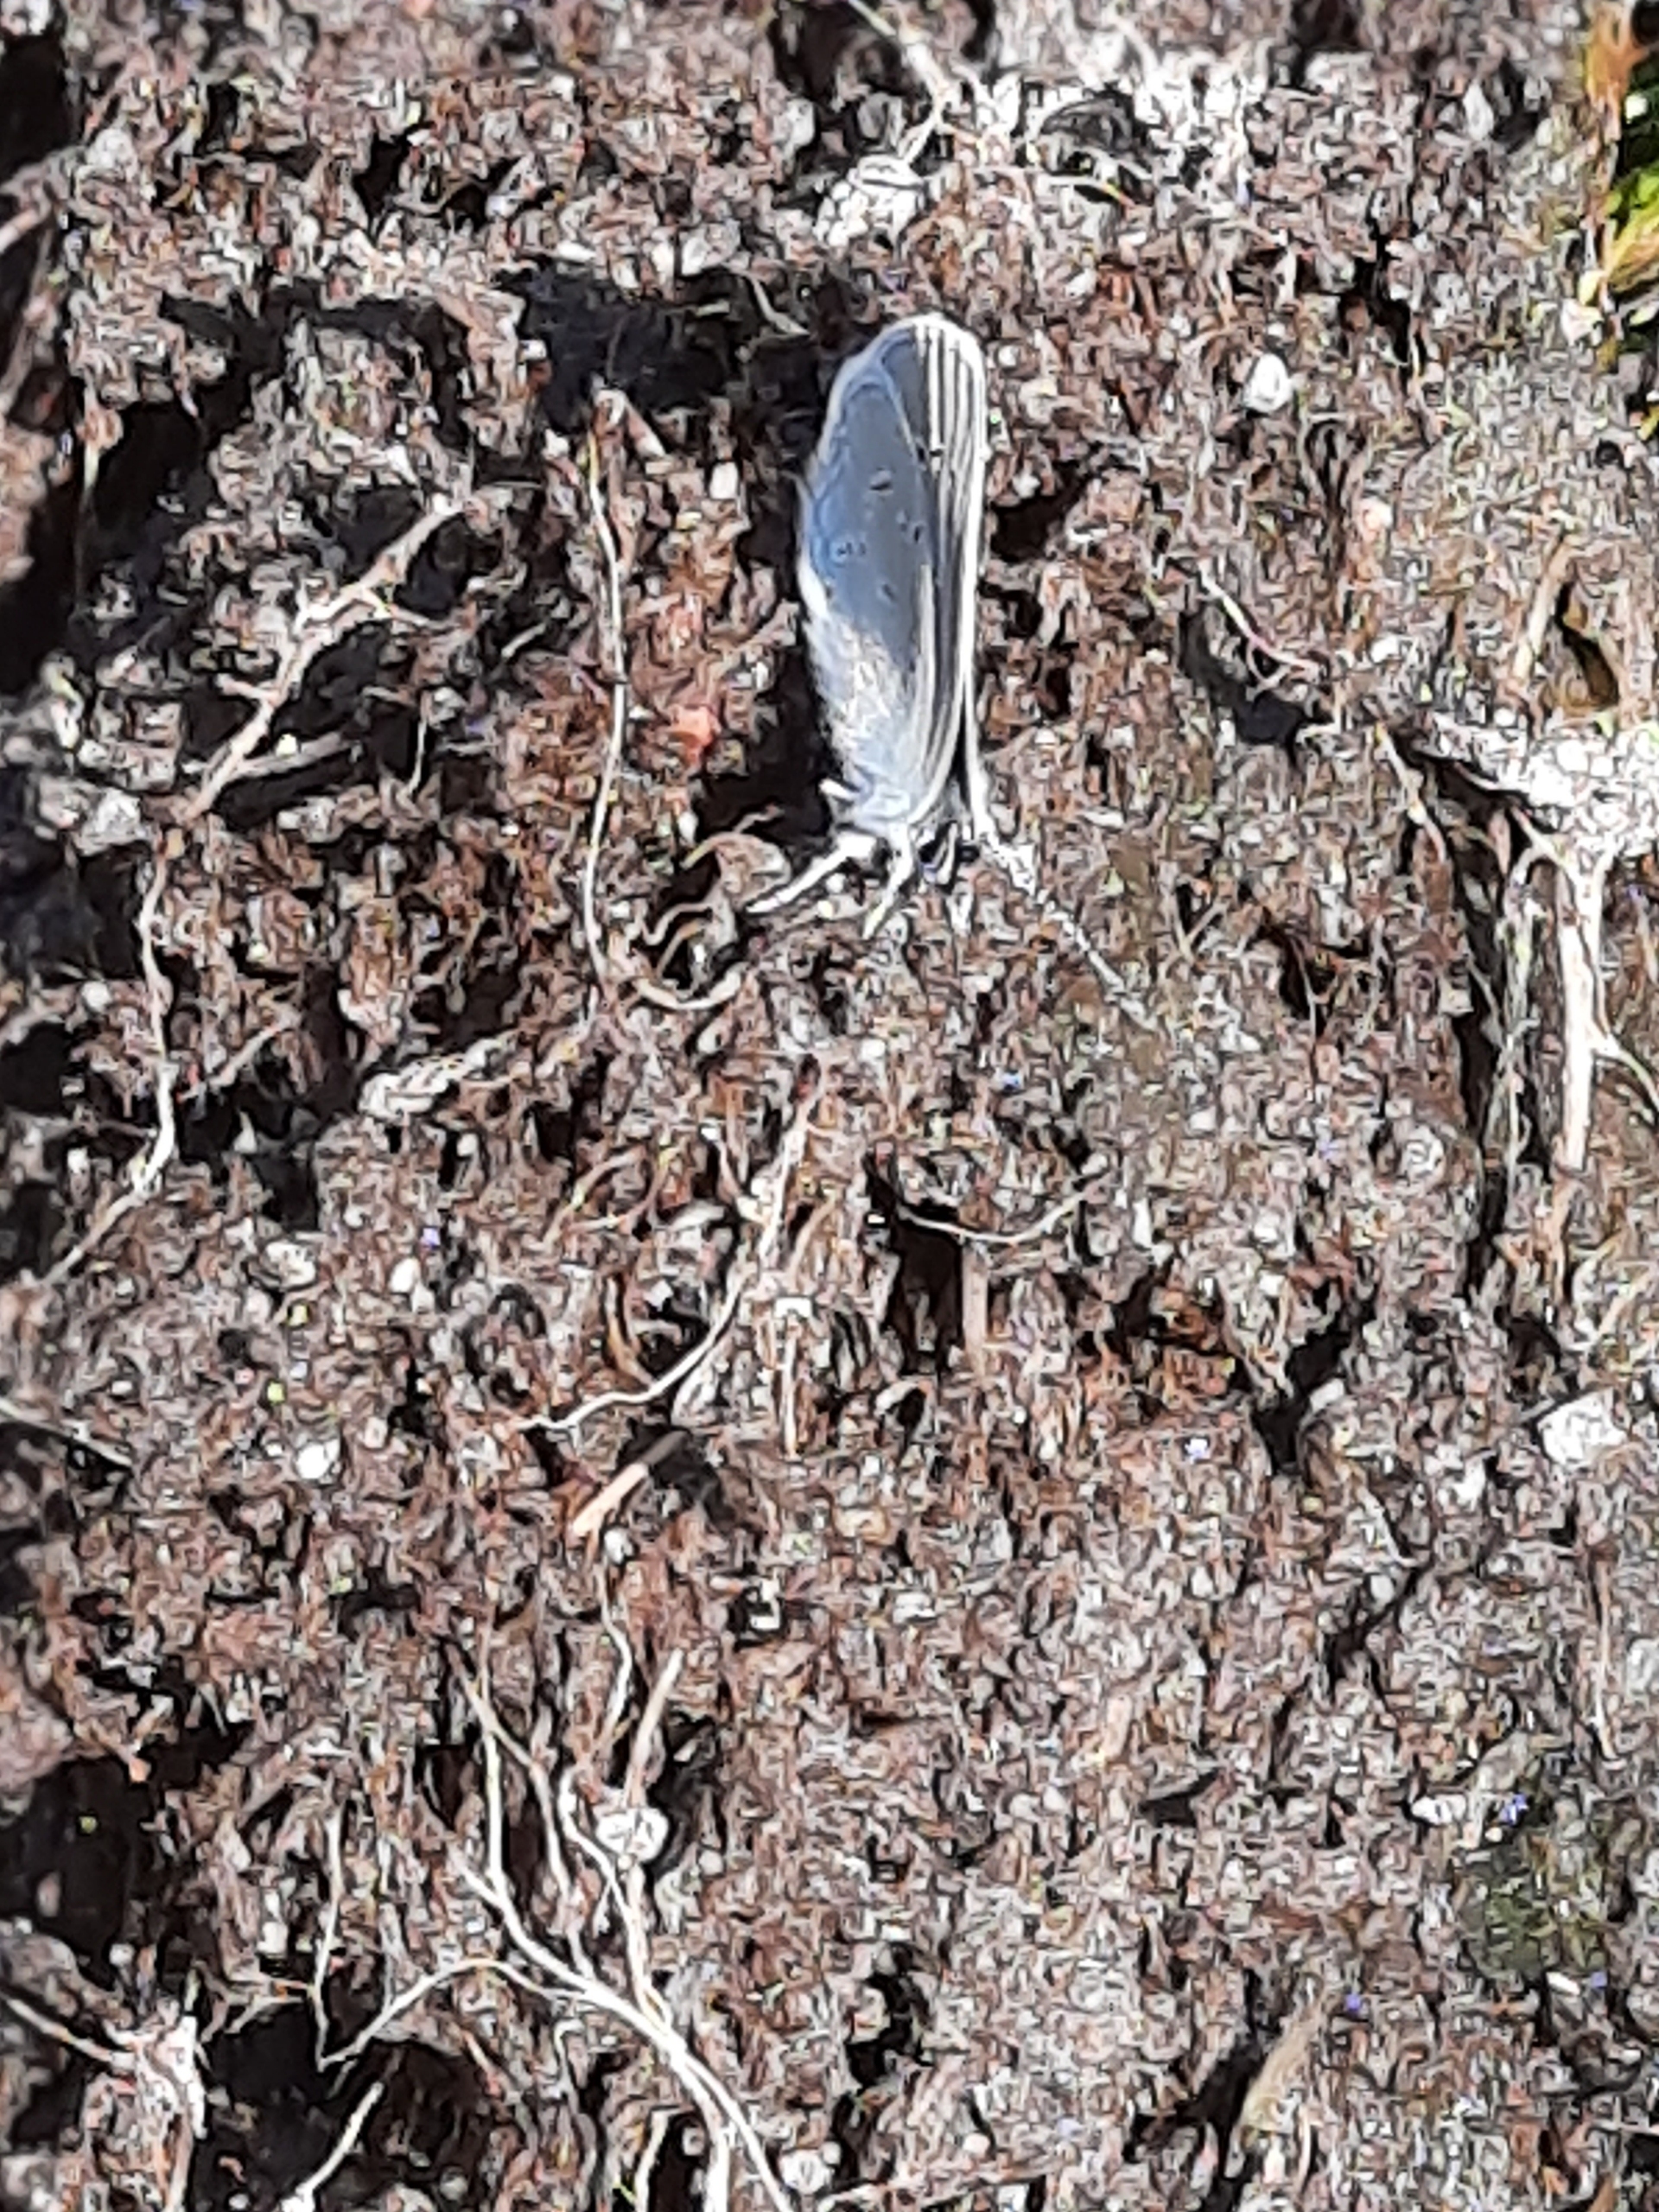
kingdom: Animalia
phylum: Arthropoda
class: Insecta
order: Lepidoptera
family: Lycaenidae
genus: Cupido
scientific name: Cupido minimus
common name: Dværgblåfugl
